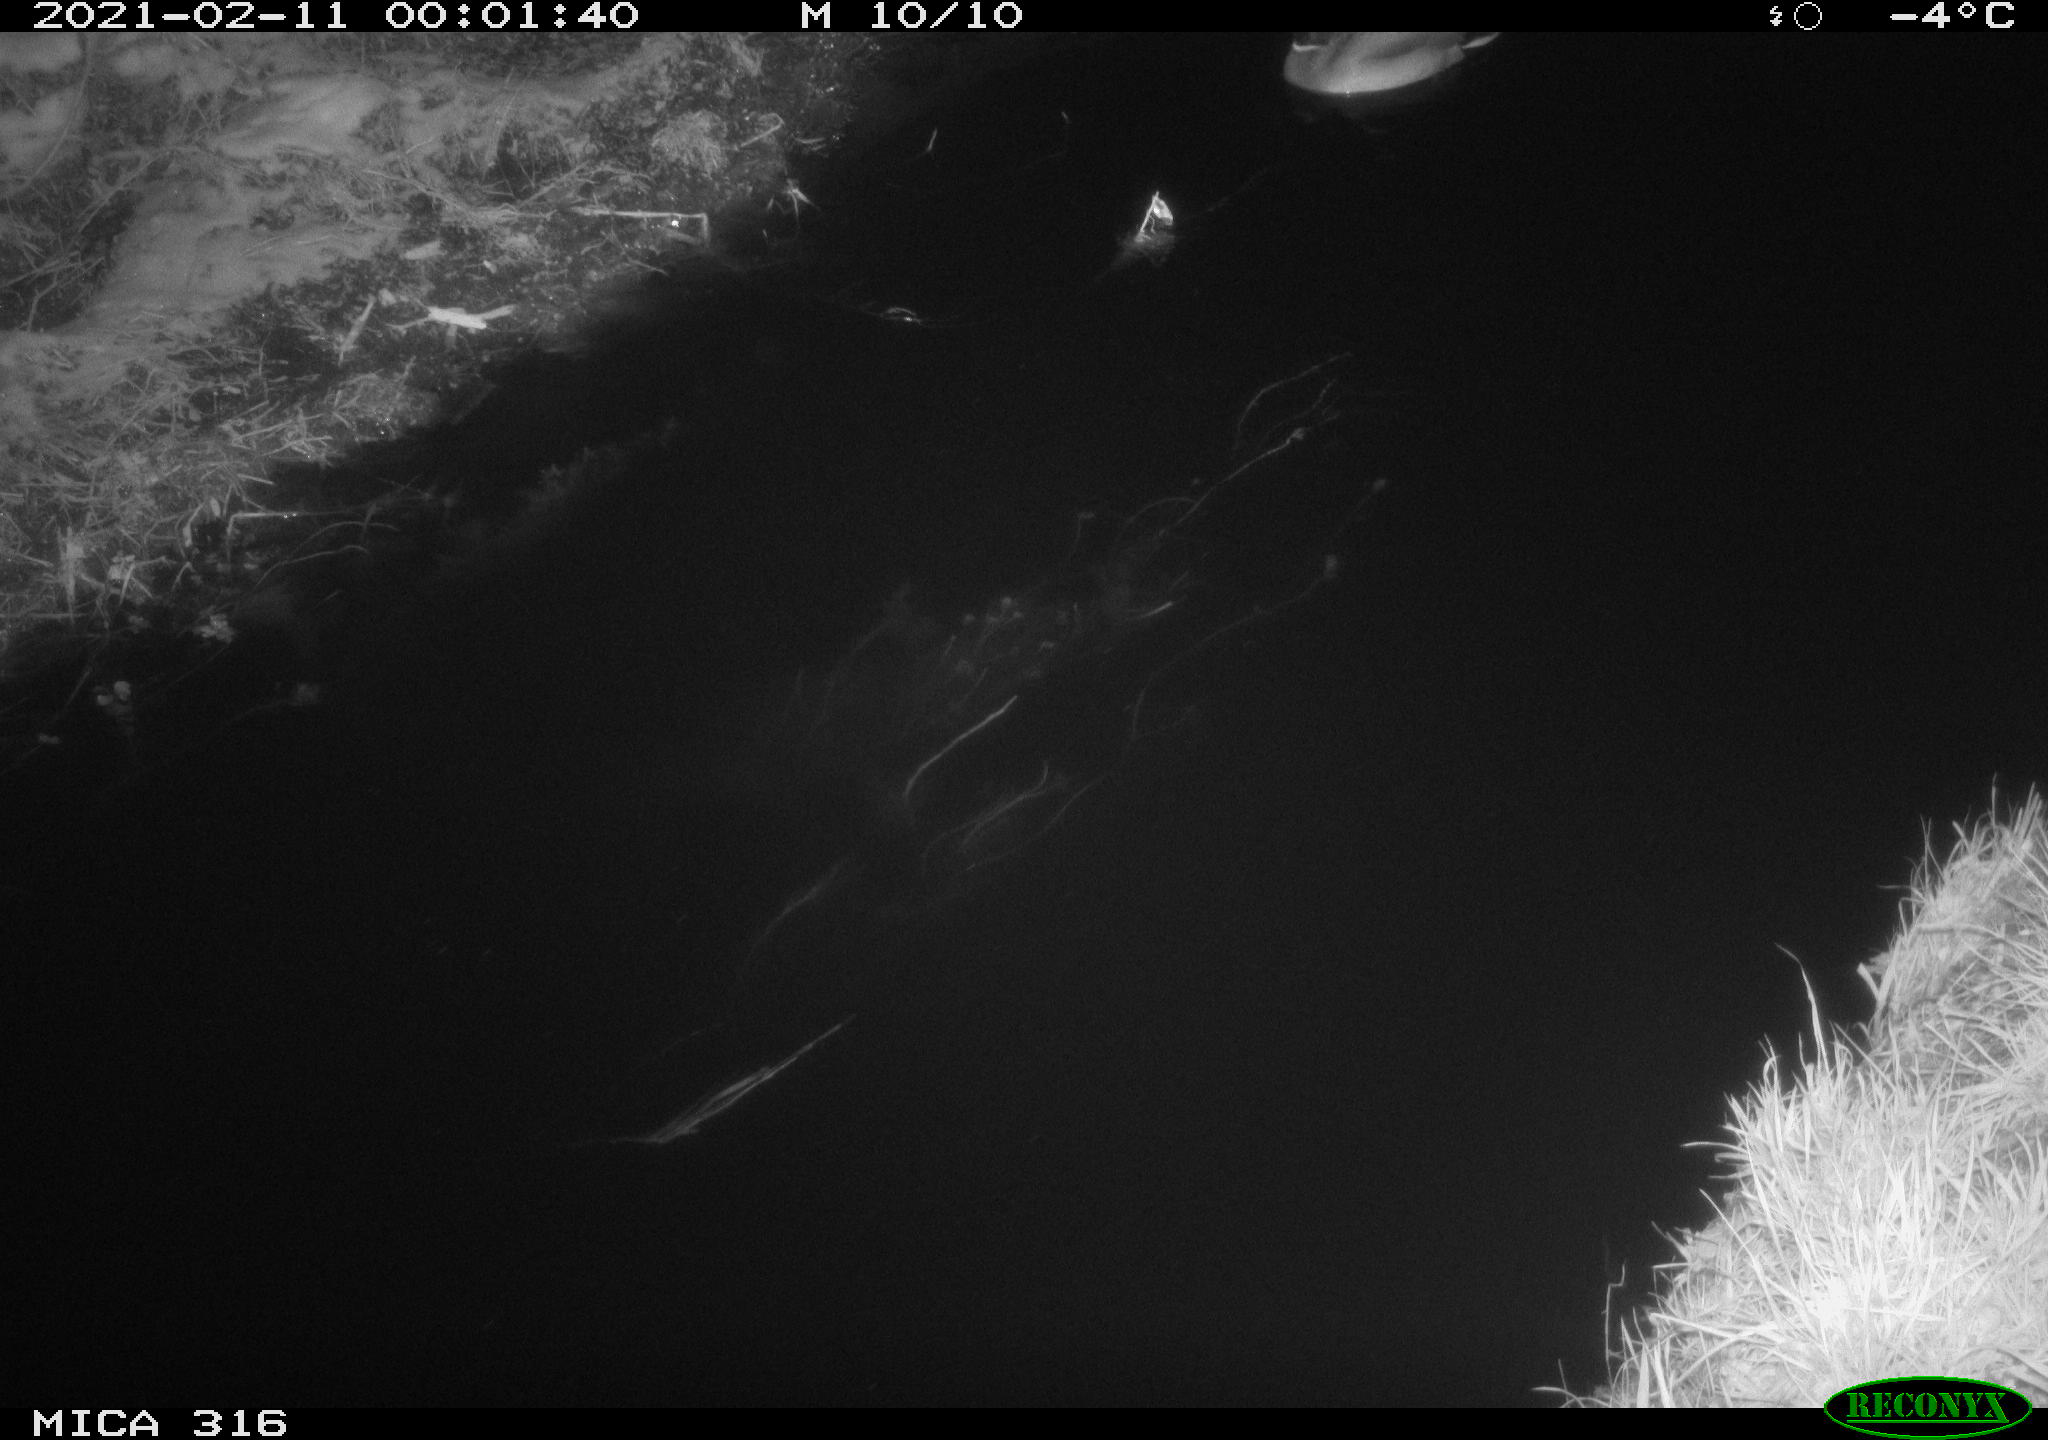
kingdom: Animalia
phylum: Chordata
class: Aves
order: Anseriformes
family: Anatidae
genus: Anas
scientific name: Anas platyrhynchos
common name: Mallard
